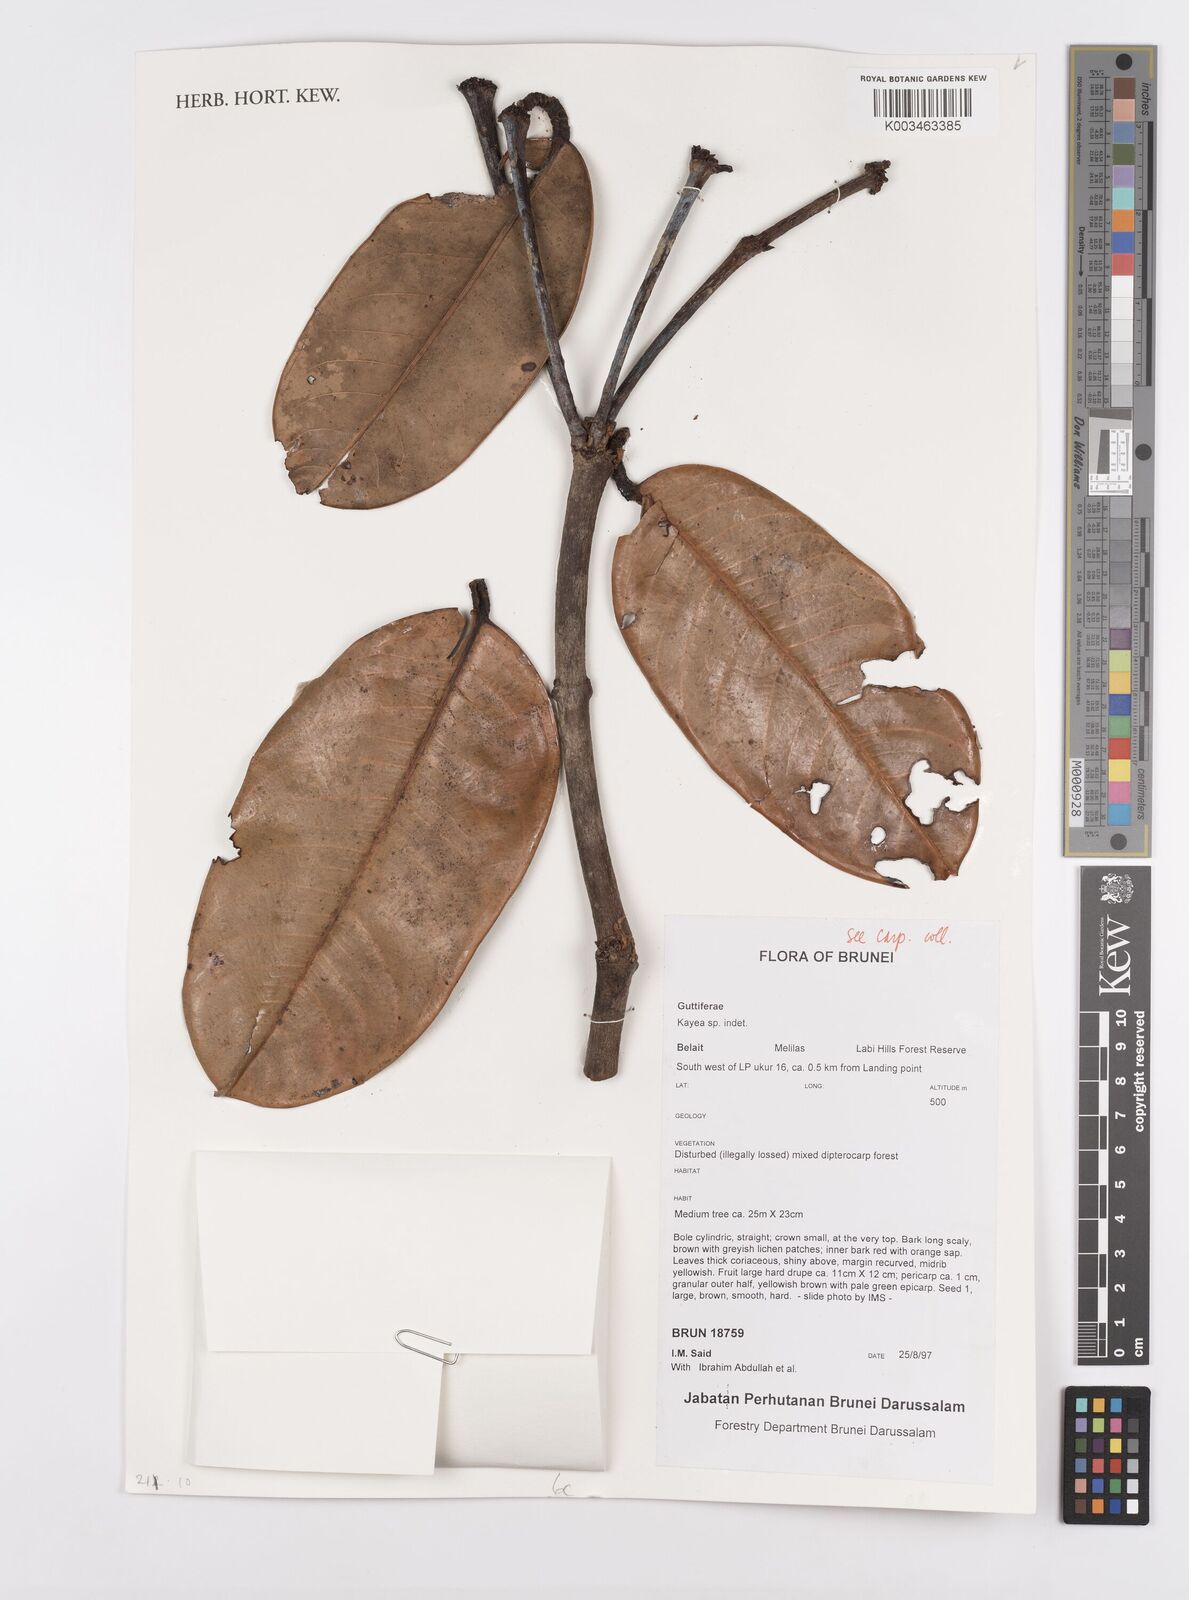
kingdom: Plantae
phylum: Tracheophyta
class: Magnoliopsida
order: Malpighiales
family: Calophyllaceae
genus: Kayea
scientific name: Kayea
